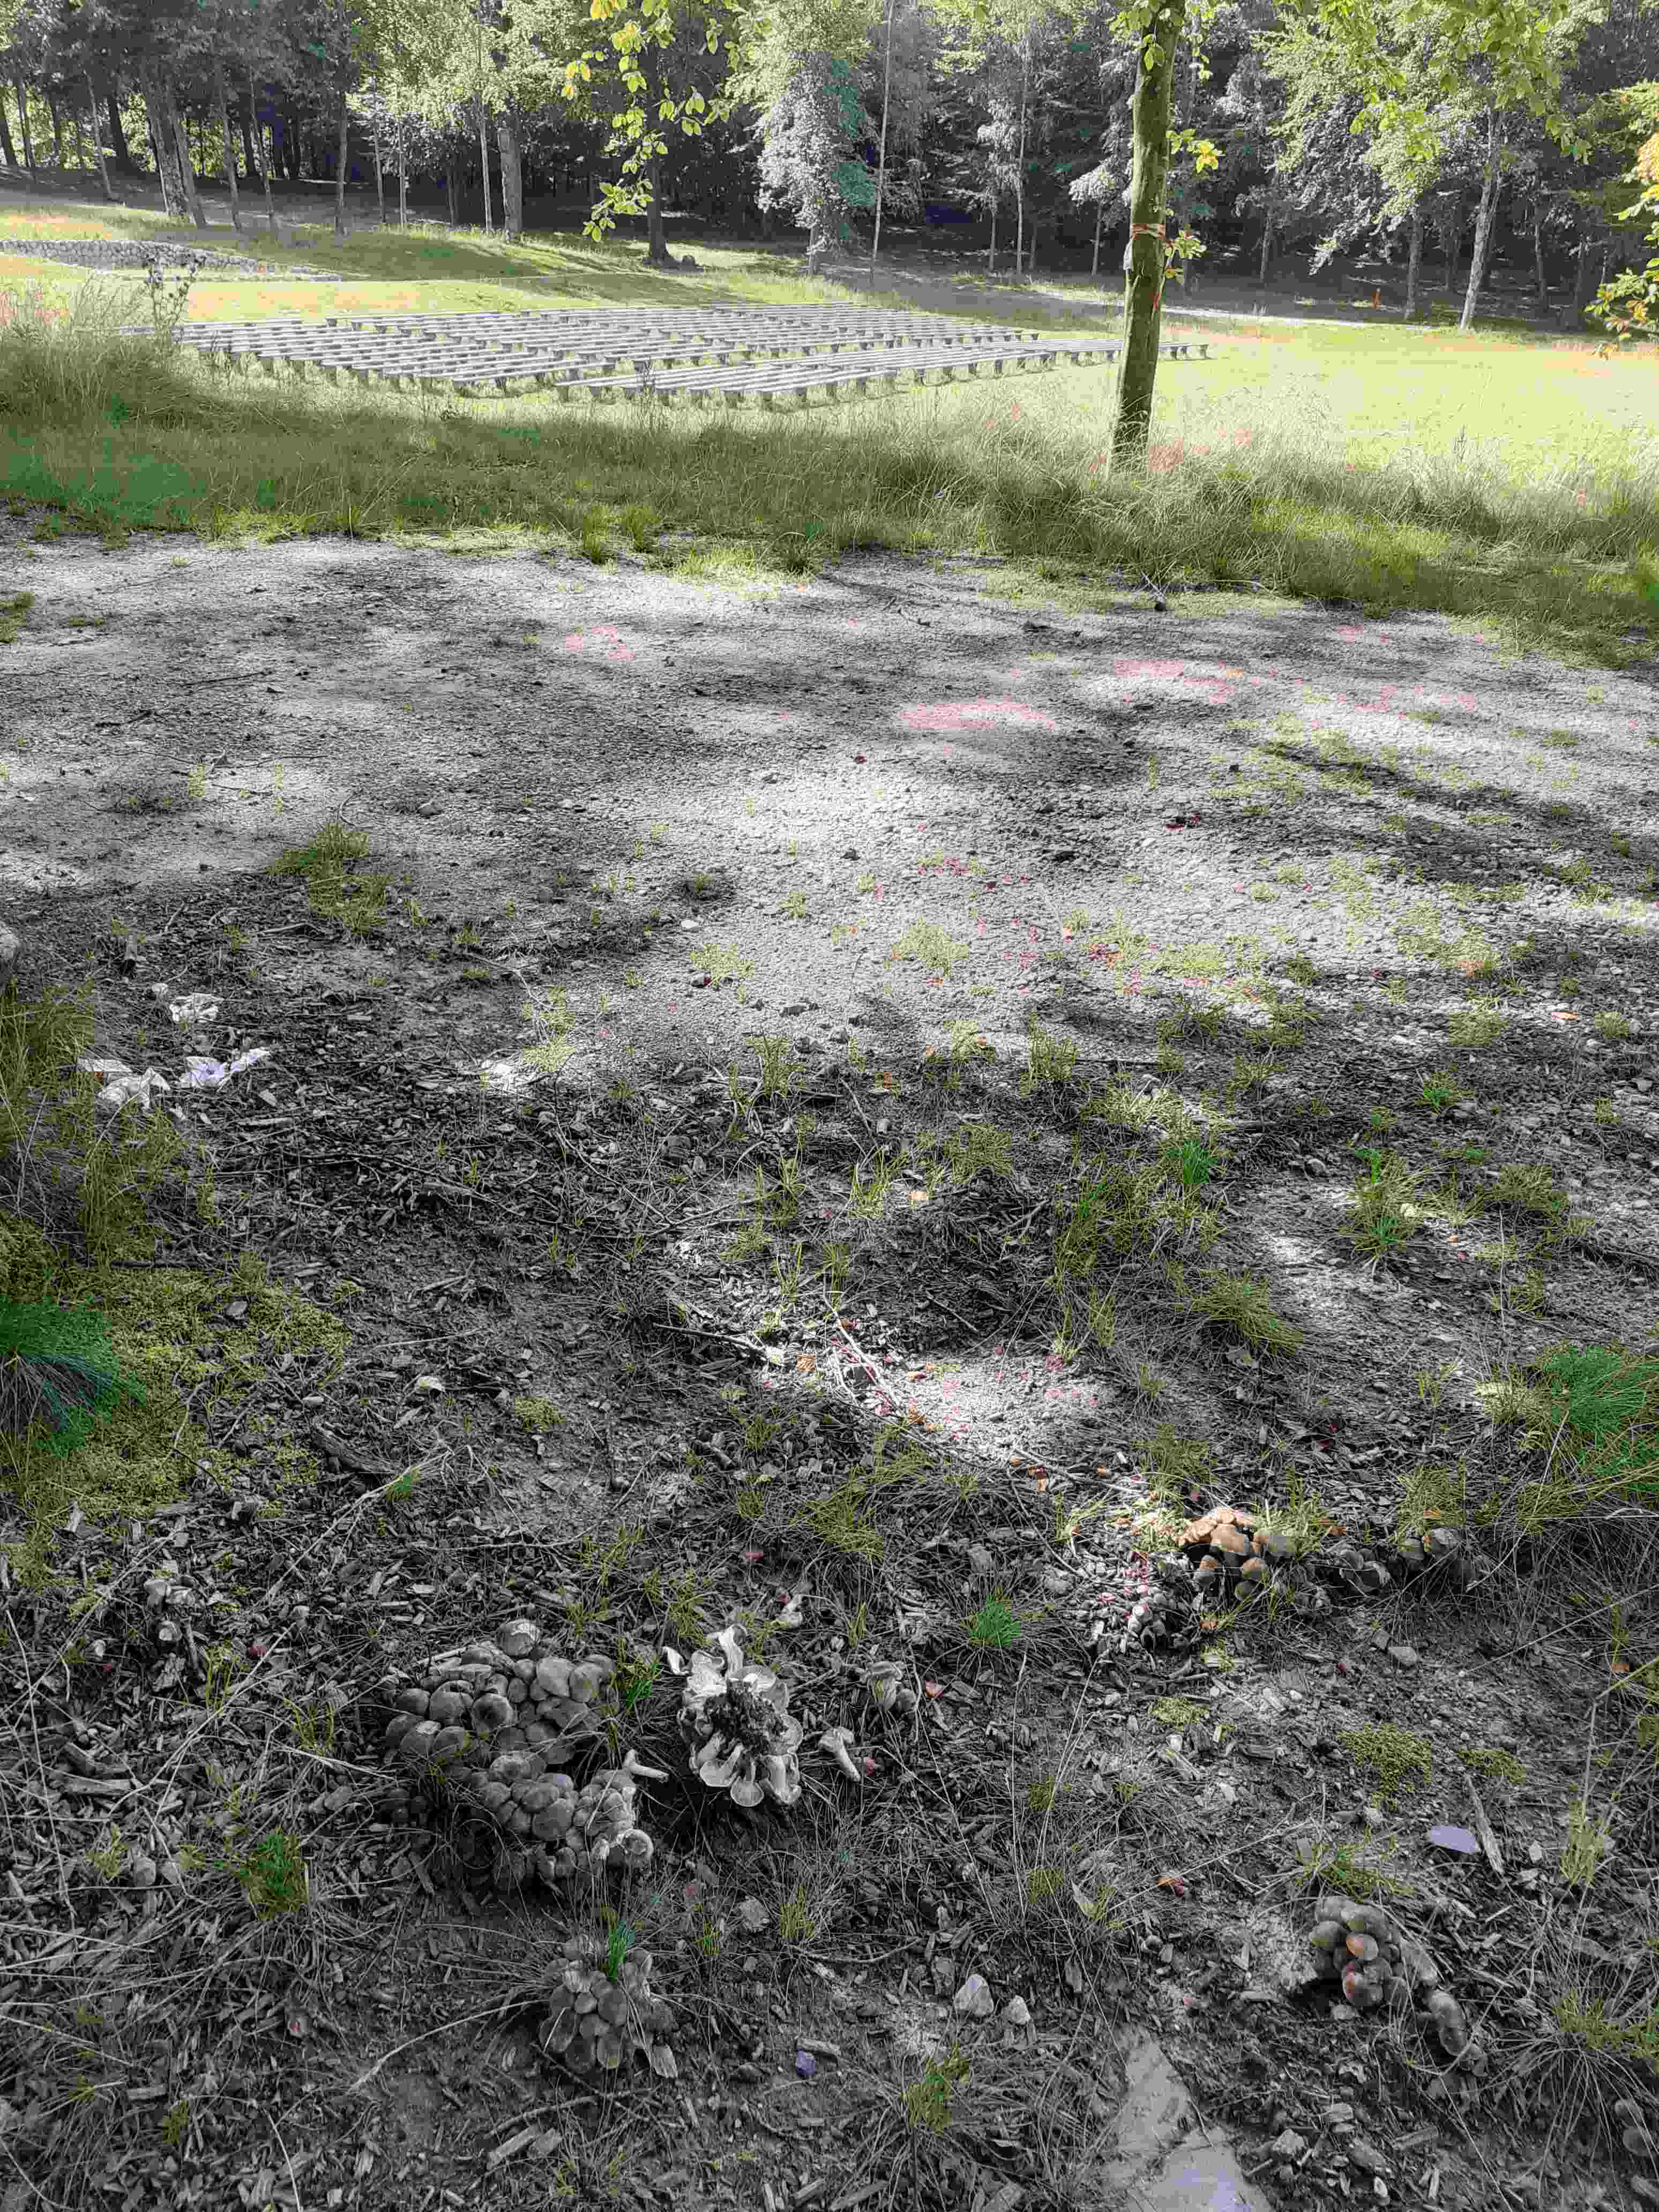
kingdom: Fungi
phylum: Basidiomycota
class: Agaricomycetes
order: Agaricales
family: Lyophyllaceae
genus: Lyophyllum
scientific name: Lyophyllum decastes
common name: Clustered domecap
